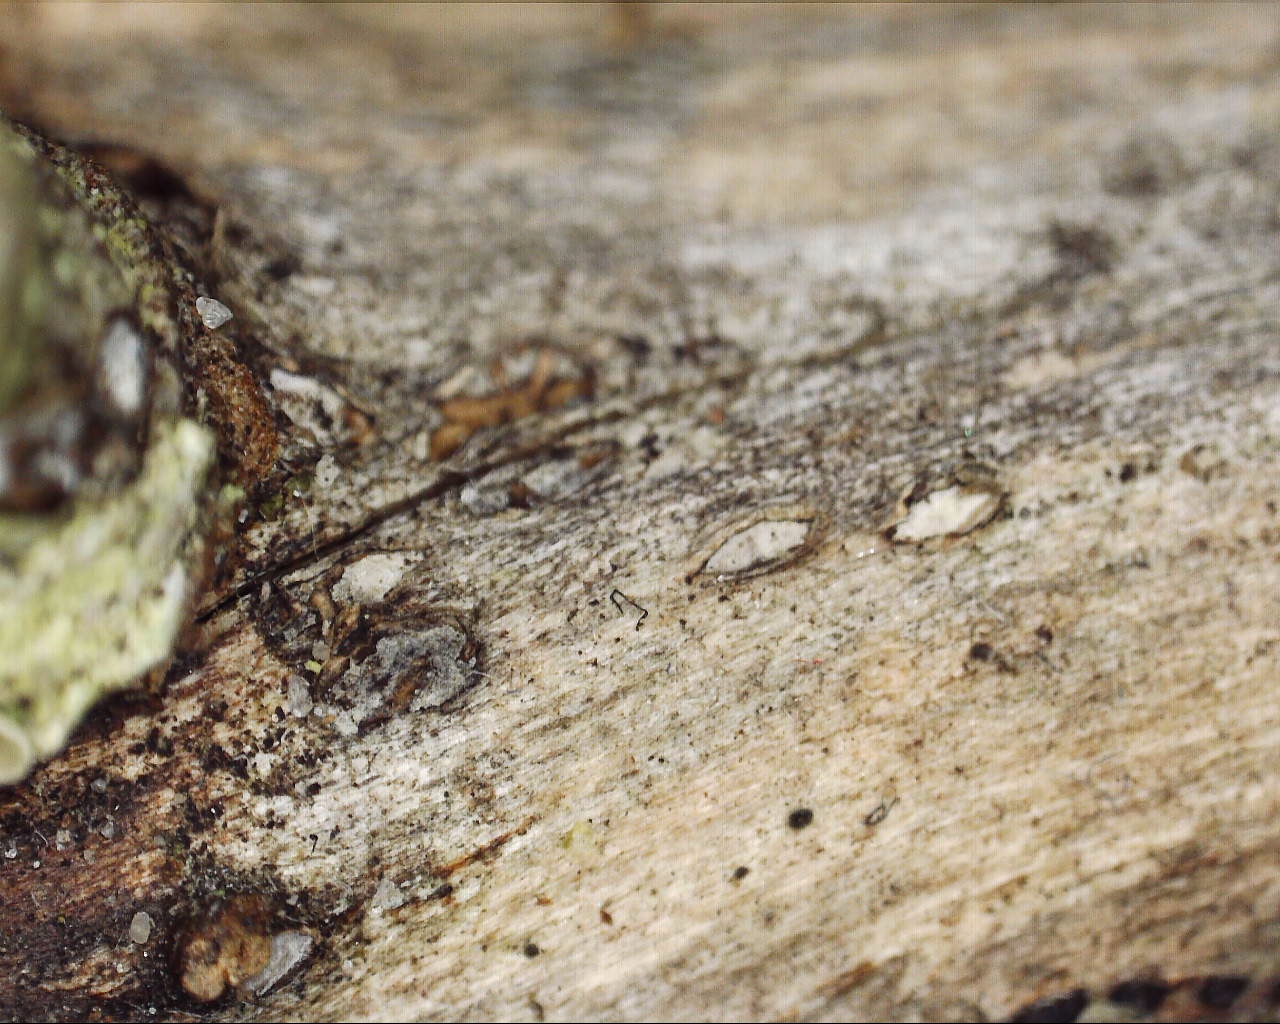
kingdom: Fungi
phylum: Ascomycota
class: Leotiomycetes
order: Chaetomellales
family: Marthamycetaceae
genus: Propolis
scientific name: Propolis farinosa
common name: almindelig vedsprængerskive
